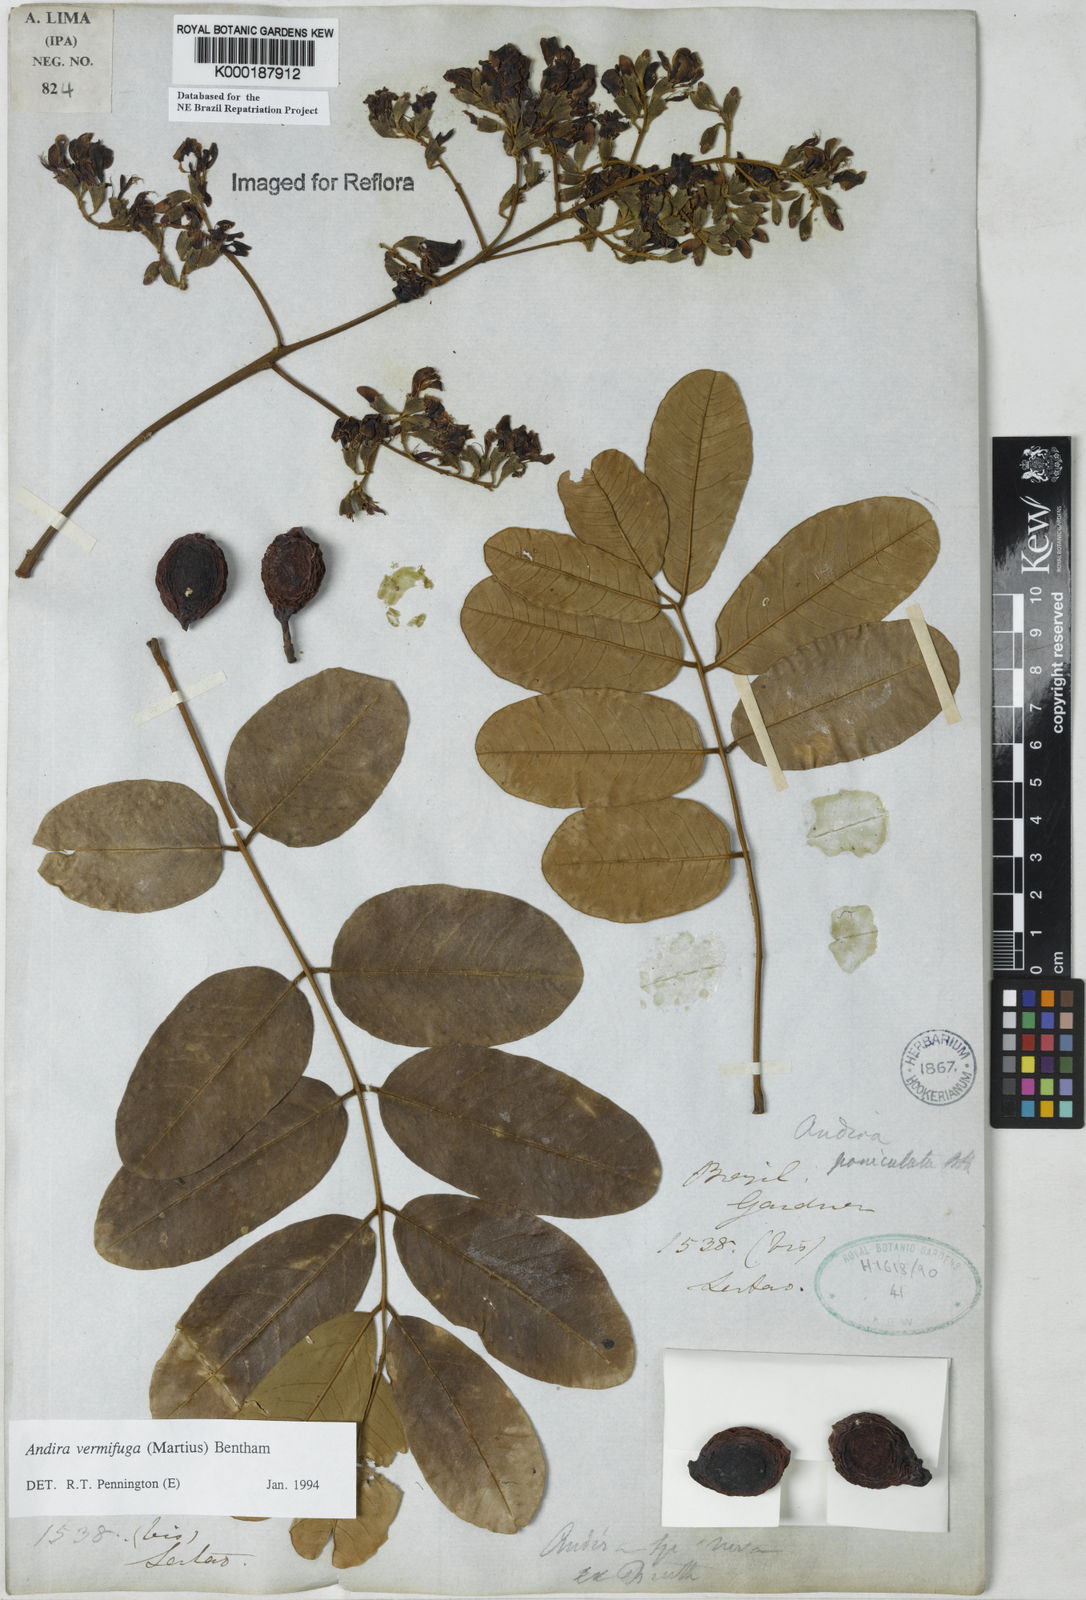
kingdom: Plantae
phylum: Tracheophyta
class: Magnoliopsida
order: Fabales
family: Fabaceae
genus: Andira
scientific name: Andira vermifuga
